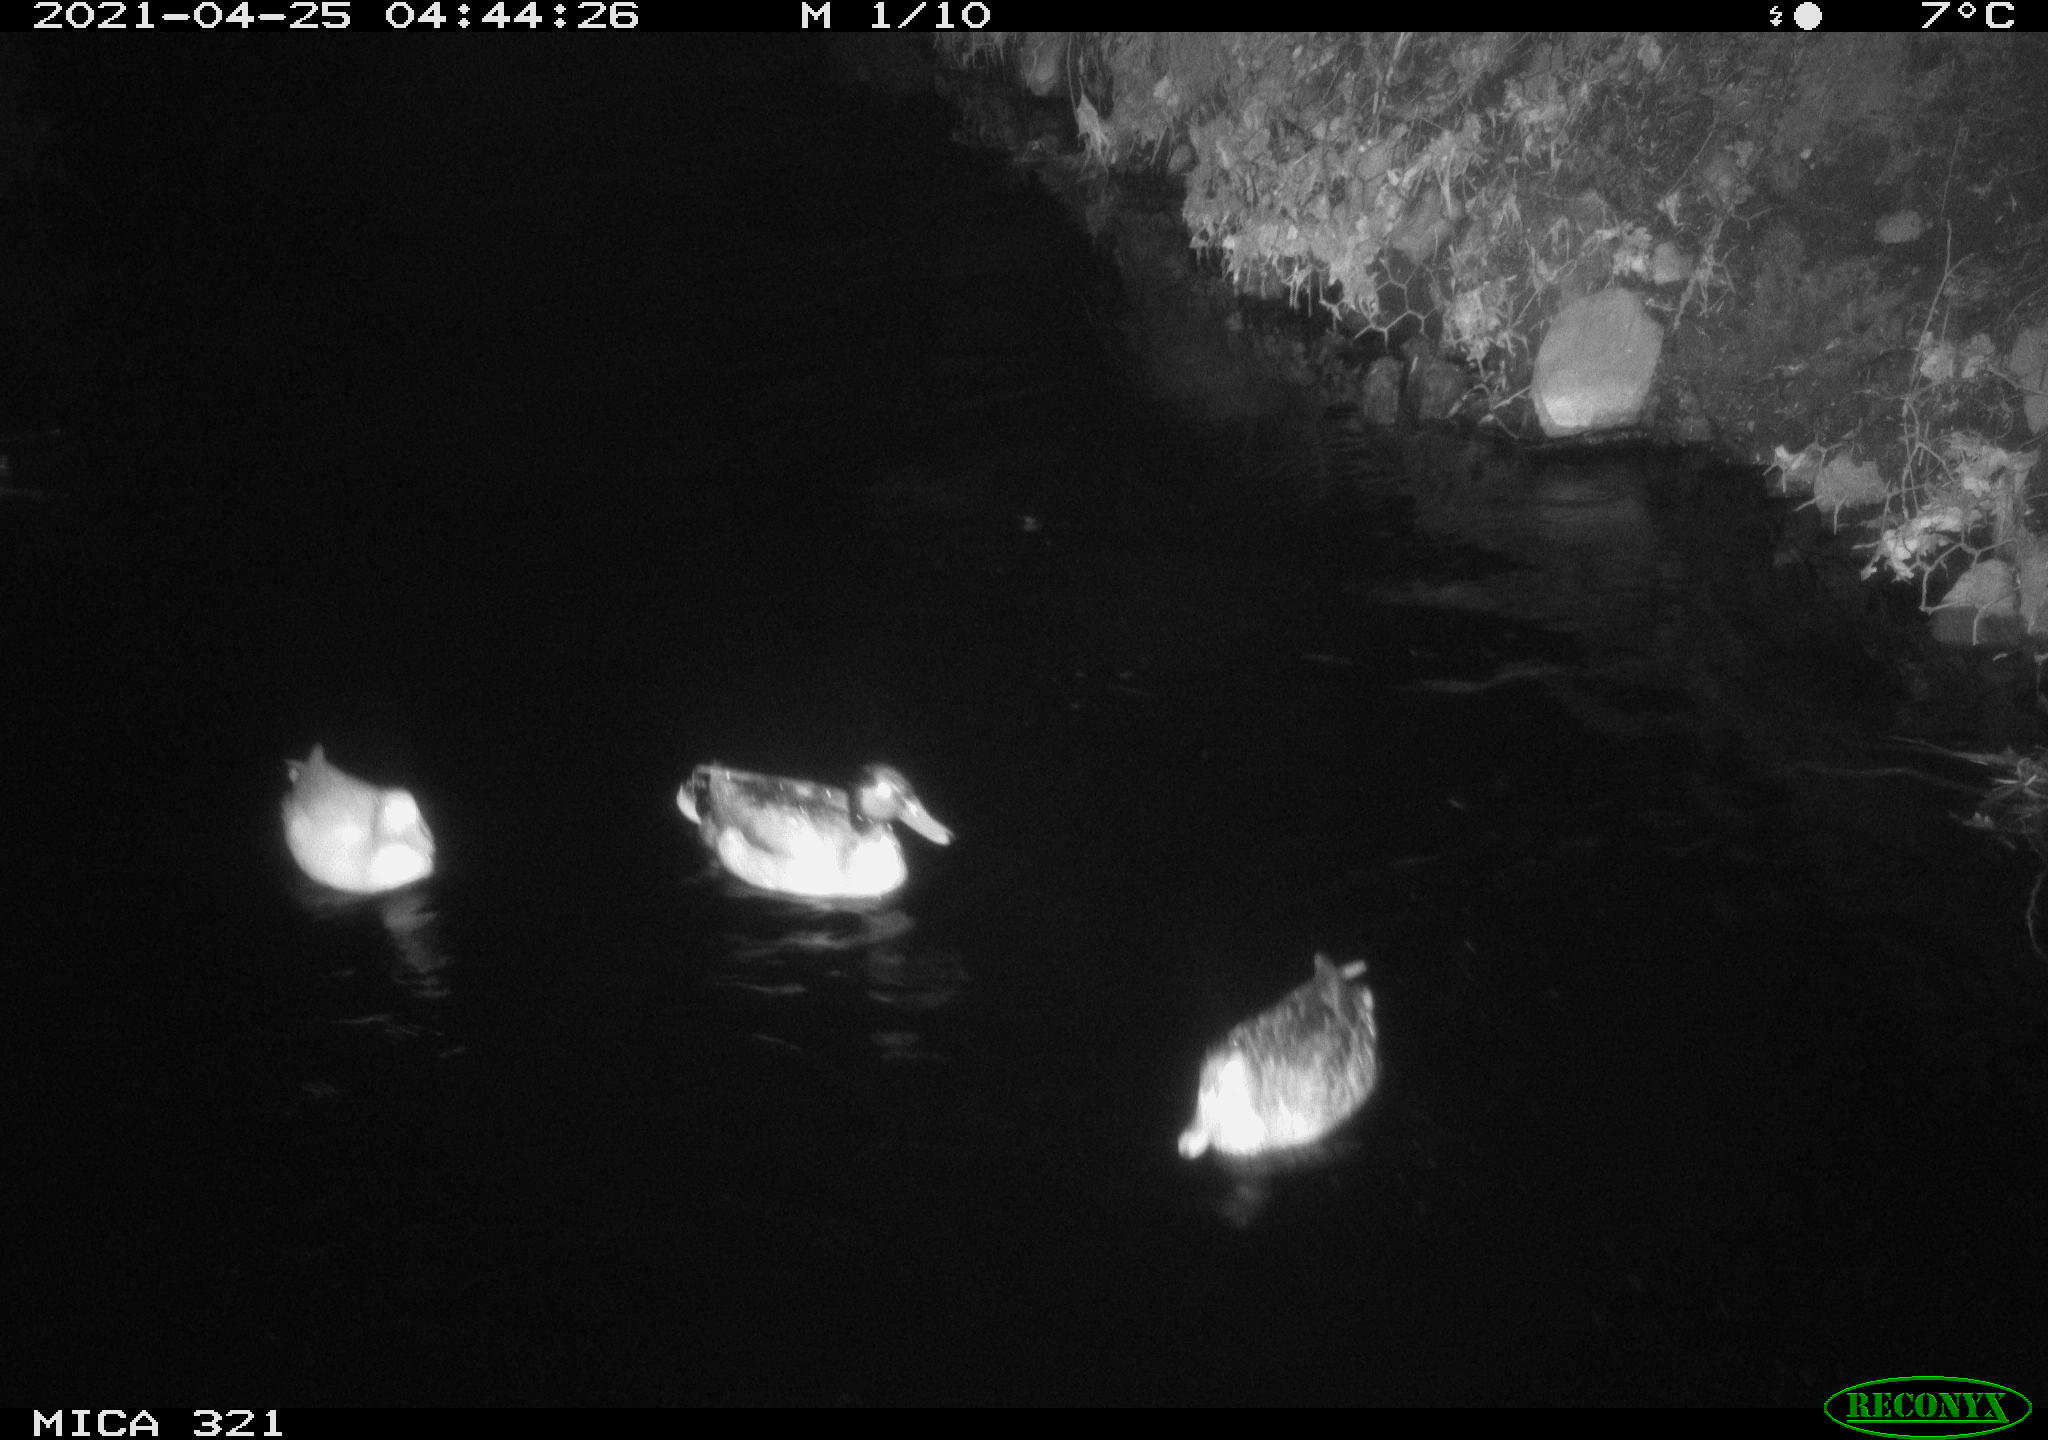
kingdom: Animalia
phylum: Chordata
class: Aves
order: Anseriformes
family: Anatidae
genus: Anas
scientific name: Anas platyrhynchos
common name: Mallard
